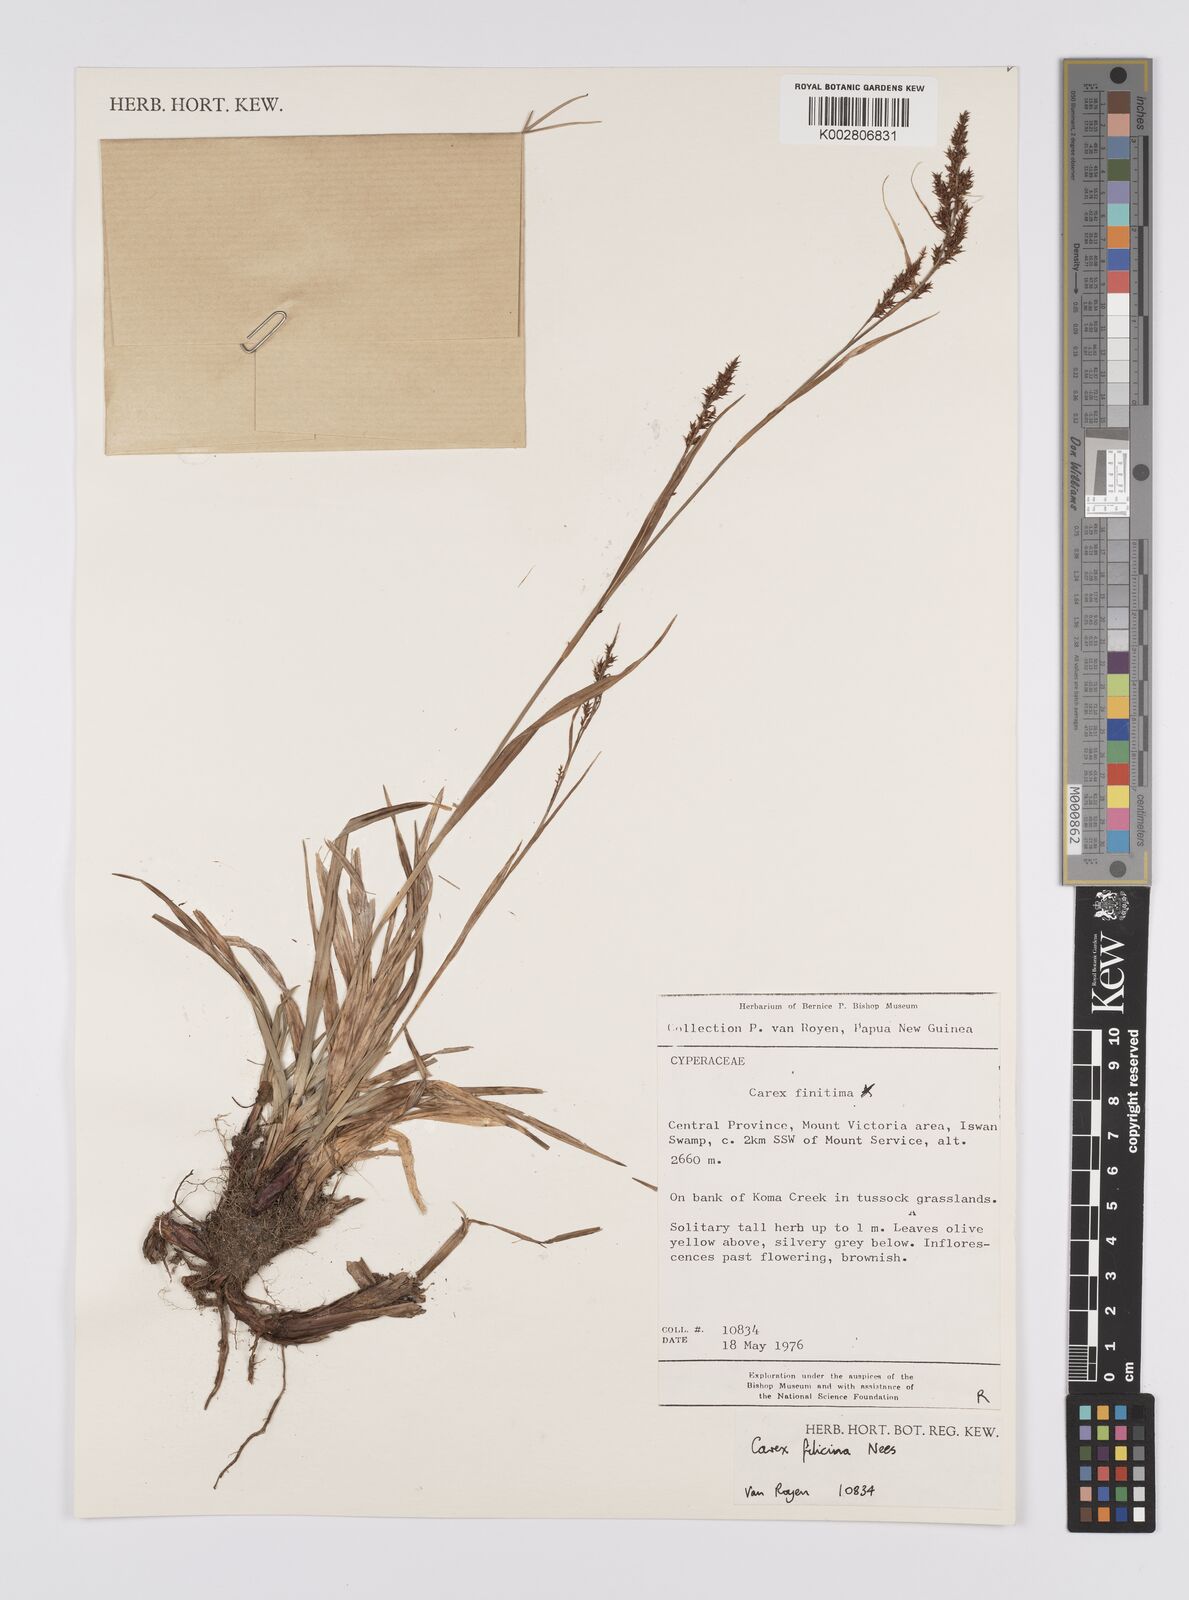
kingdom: Plantae
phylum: Tracheophyta
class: Liliopsida
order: Poales
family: Cyperaceae
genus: Carex
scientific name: Carex filicina
